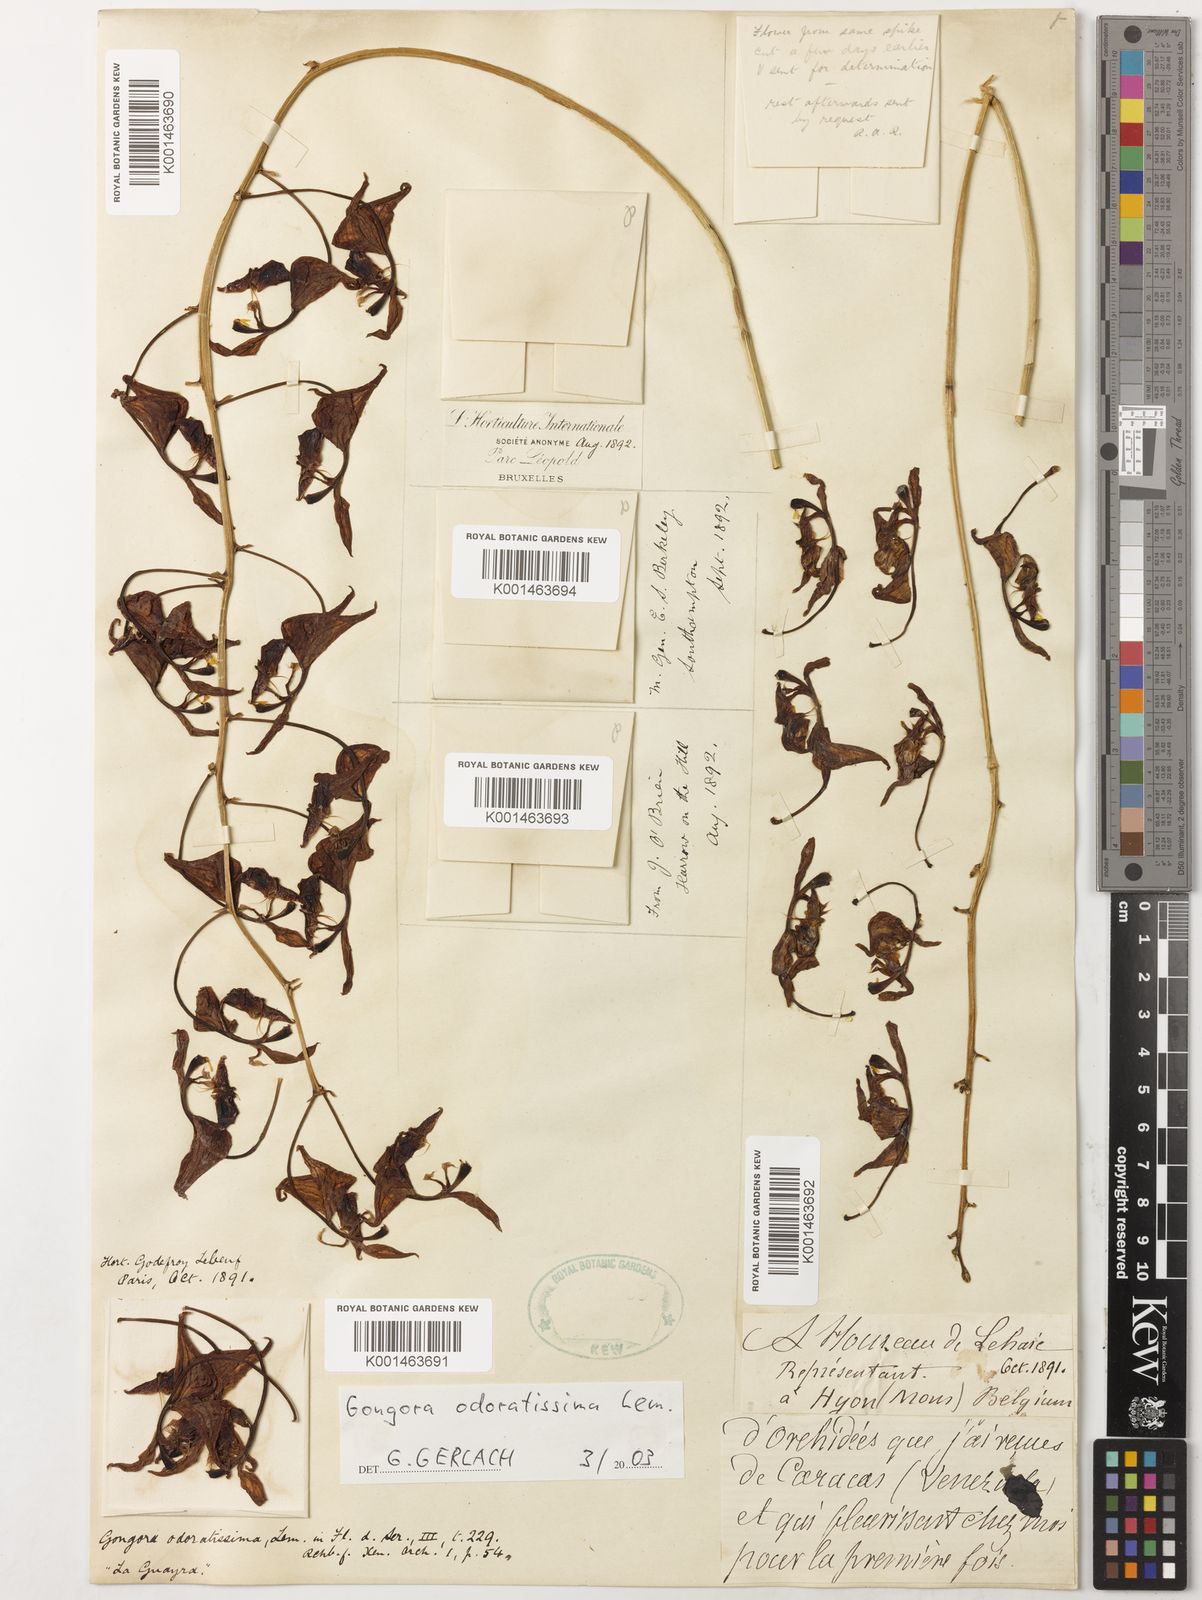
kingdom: Plantae
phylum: Tracheophyta
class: Liliopsida
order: Asparagales
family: Orchidaceae
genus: Gongora
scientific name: Gongora odoratissima
